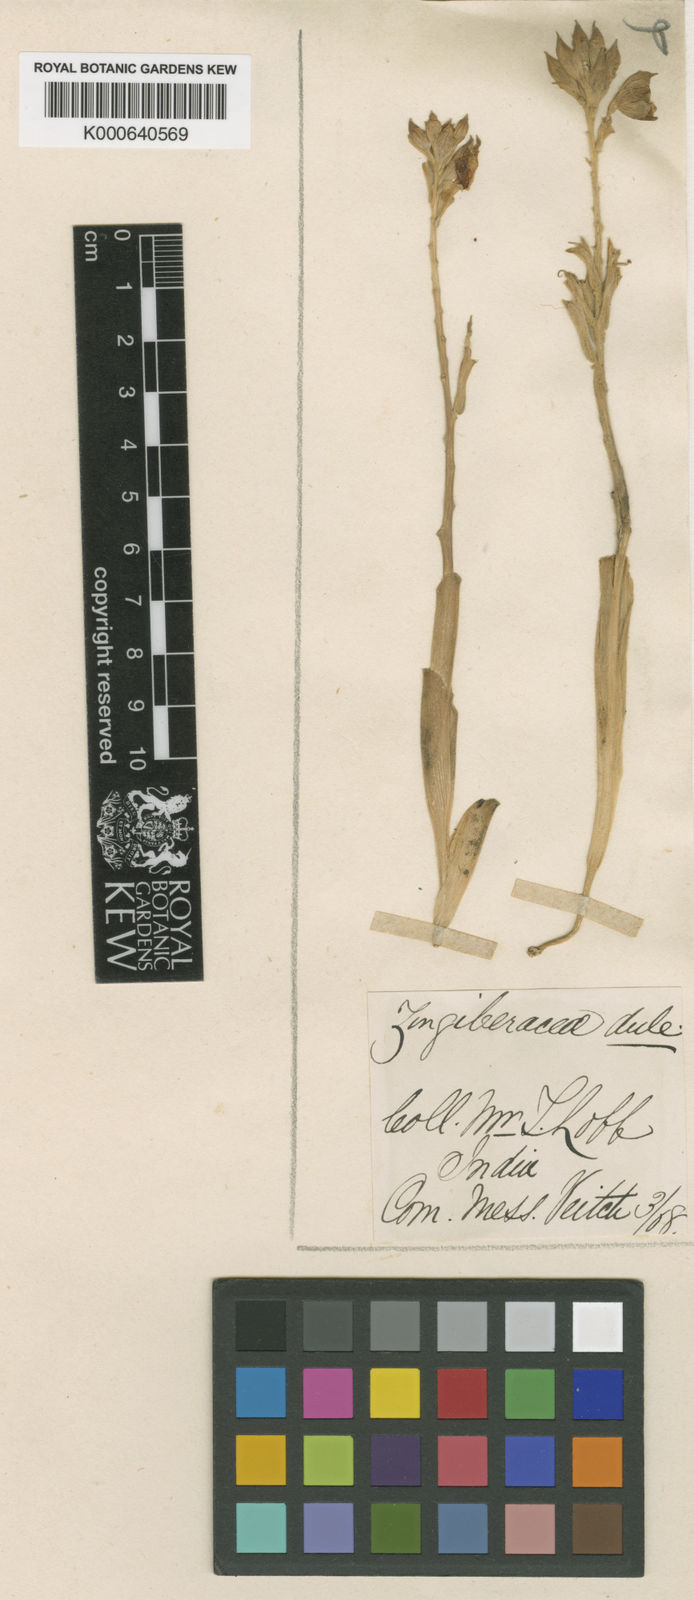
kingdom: Plantae
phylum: Tracheophyta
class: Liliopsida
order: Zingiberales
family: Zingiberaceae
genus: Hemiorchis
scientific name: Hemiorchis burmanica
